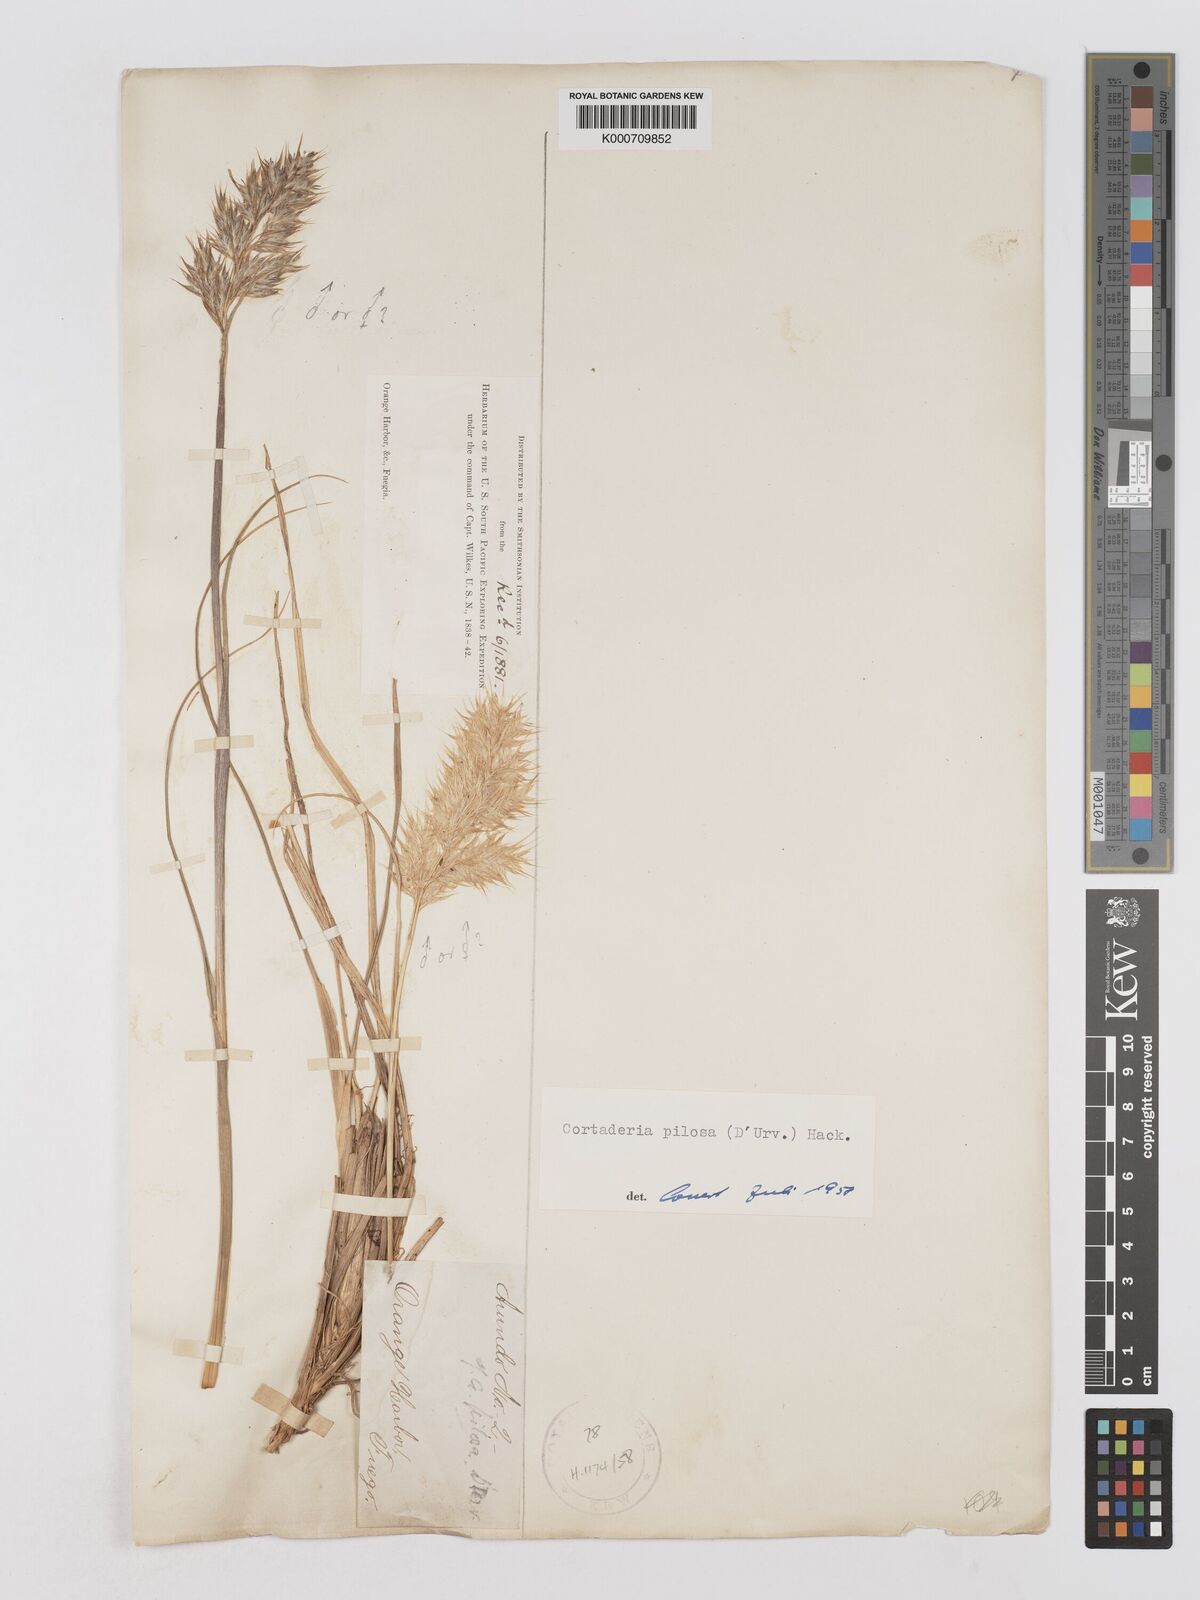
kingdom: Plantae
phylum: Tracheophyta
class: Liliopsida
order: Poales
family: Poaceae
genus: Cortaderia
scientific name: Cortaderia
